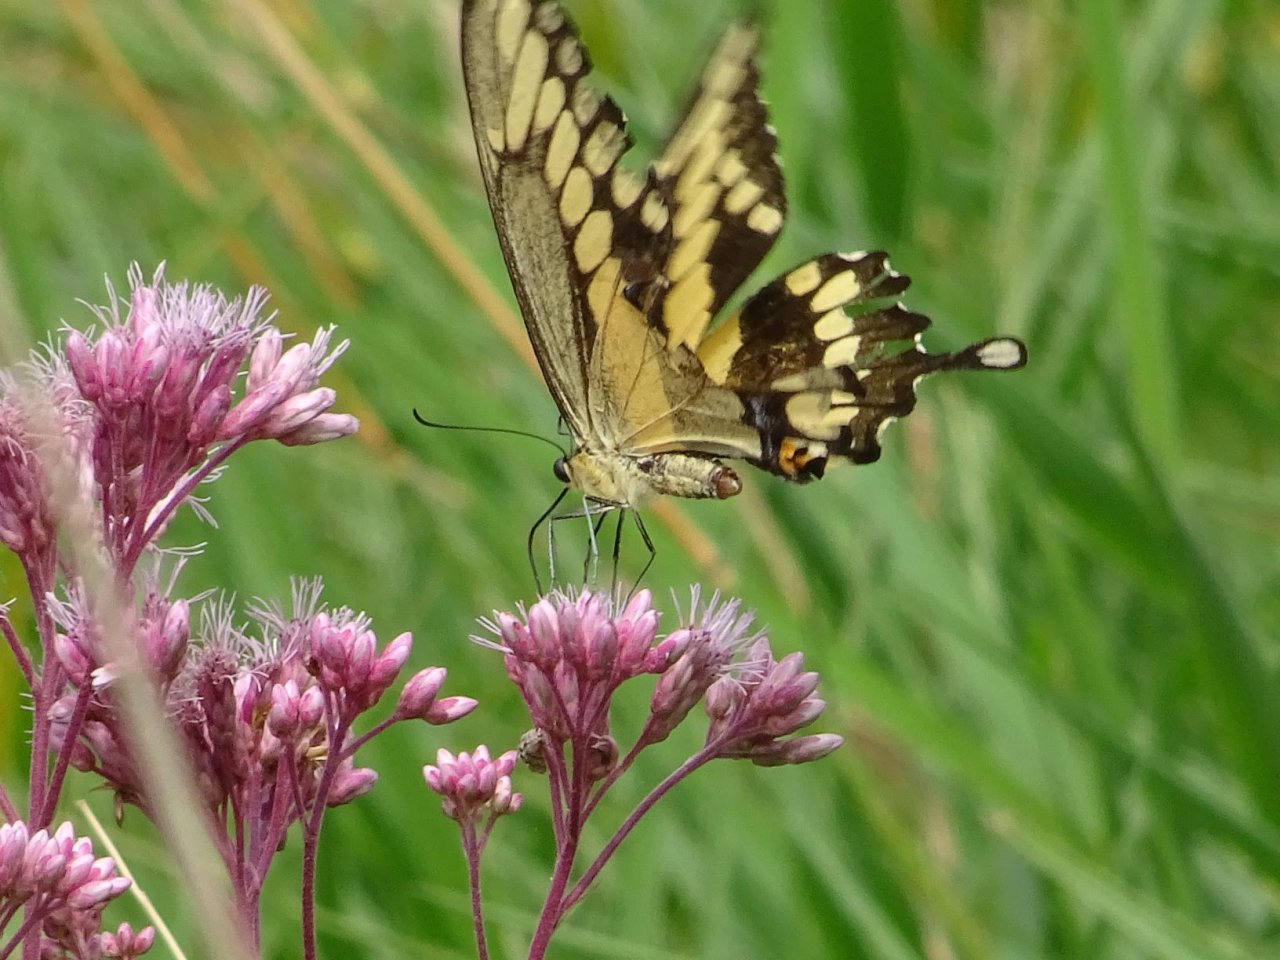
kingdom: Animalia
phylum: Arthropoda
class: Insecta
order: Lepidoptera
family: Papilionidae
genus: Papilio
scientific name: Papilio cresphontes
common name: Eastern Giant Swallowtail
